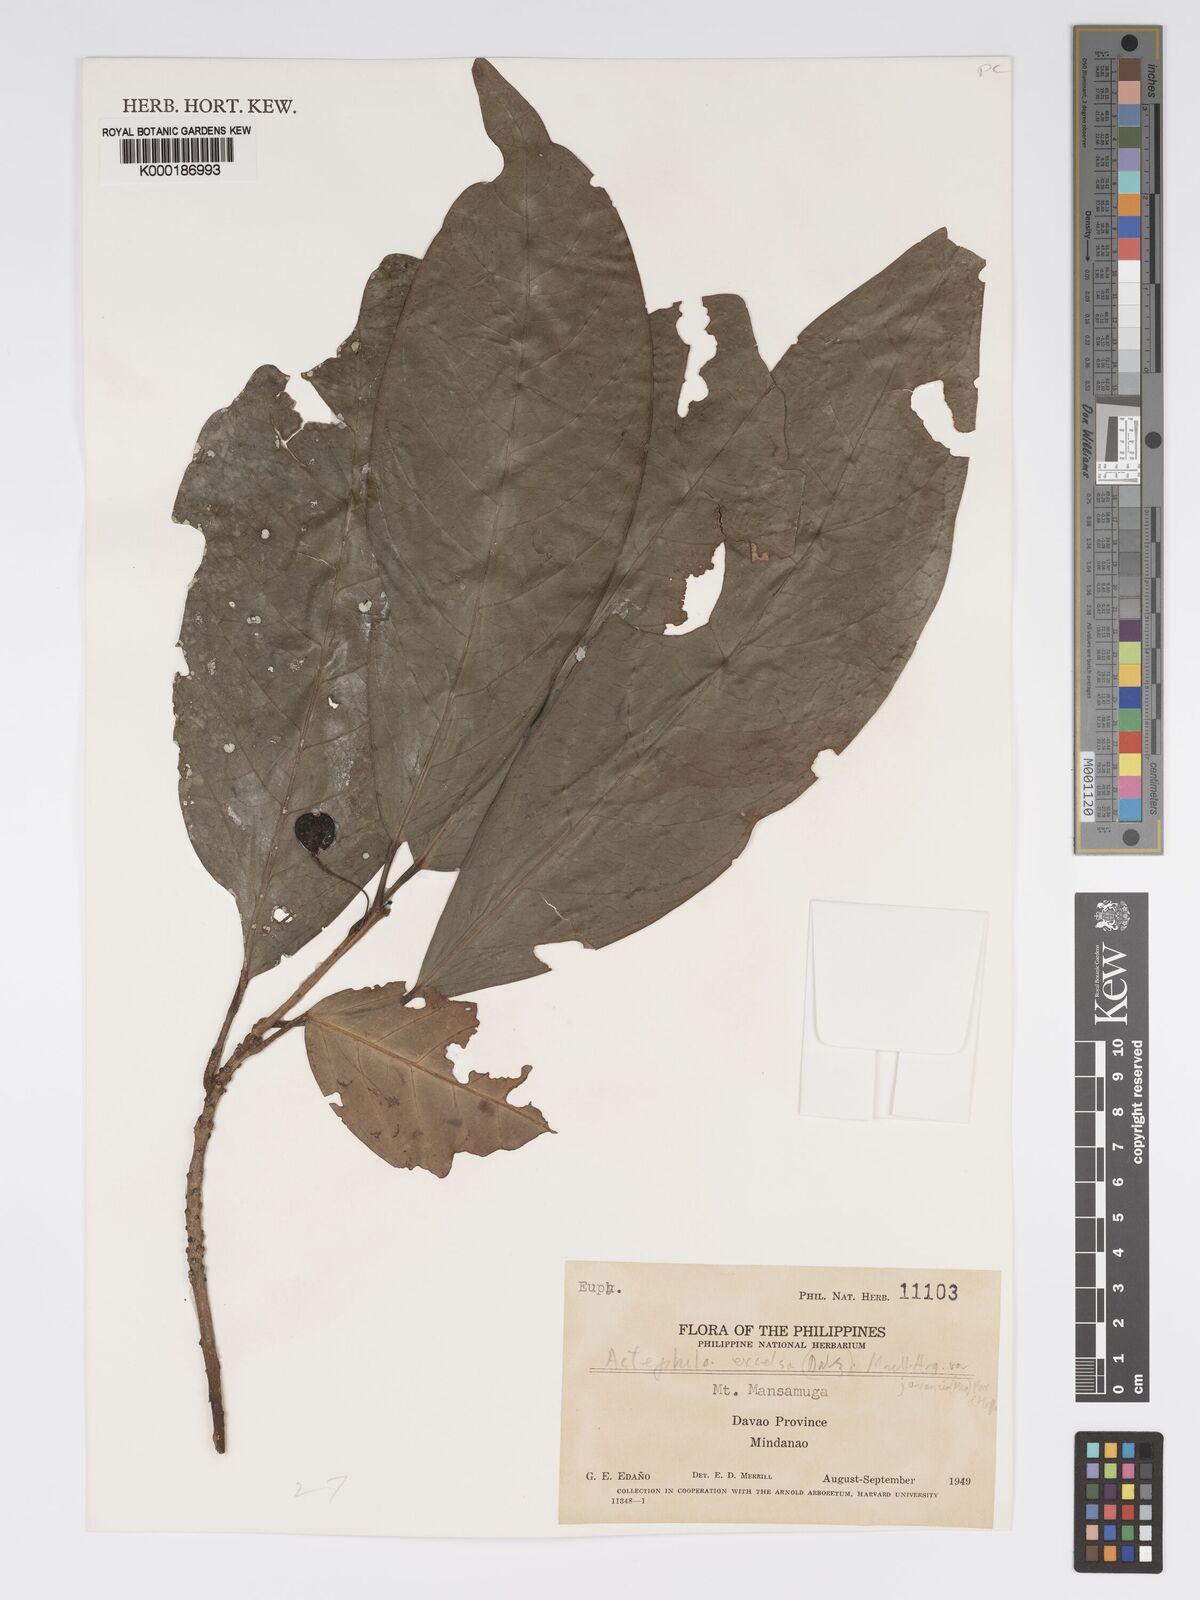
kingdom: Plantae
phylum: Tracheophyta
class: Magnoliopsida
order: Malpighiales
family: Phyllanthaceae
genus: Actephila
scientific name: Actephila
